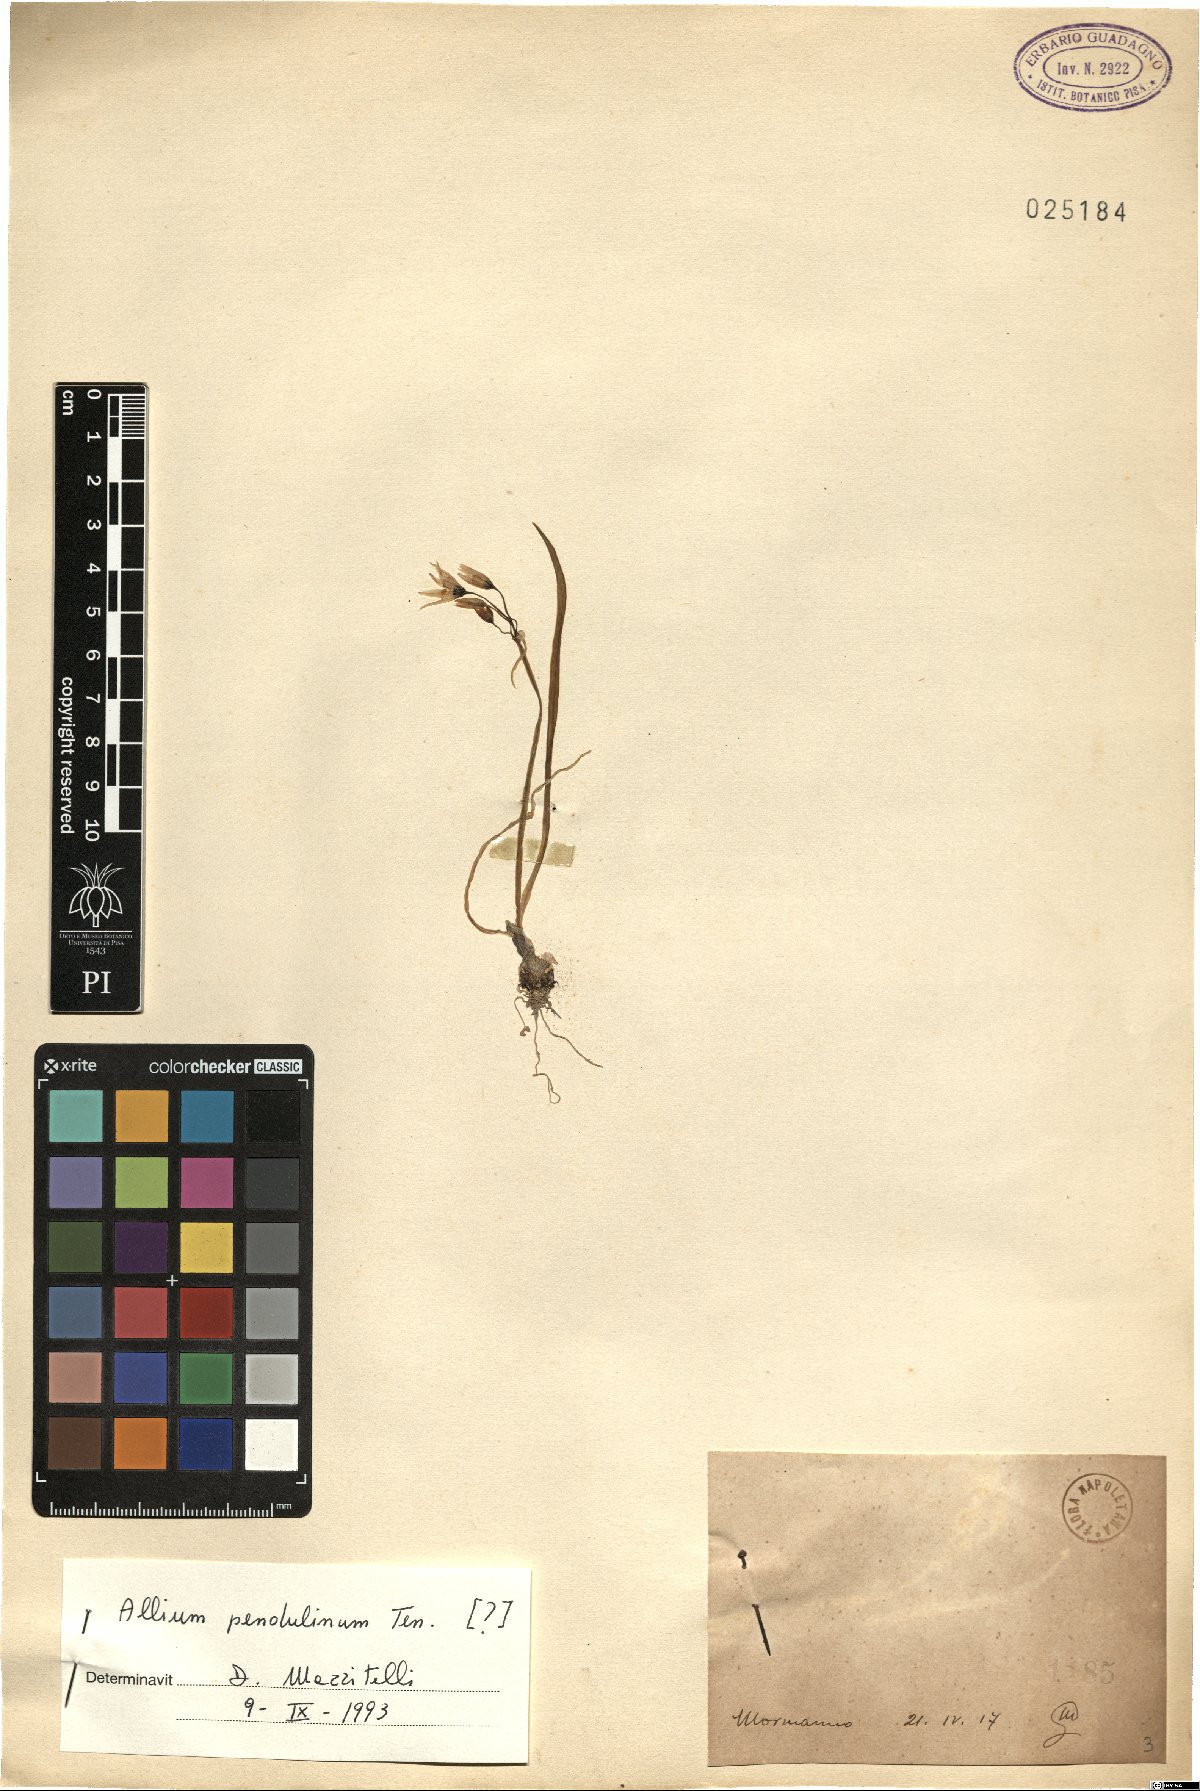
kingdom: Plantae
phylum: Tracheophyta
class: Liliopsida
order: Asparagales
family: Amaryllidaceae
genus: Allium
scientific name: Allium pendulinum
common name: Italian garlic
